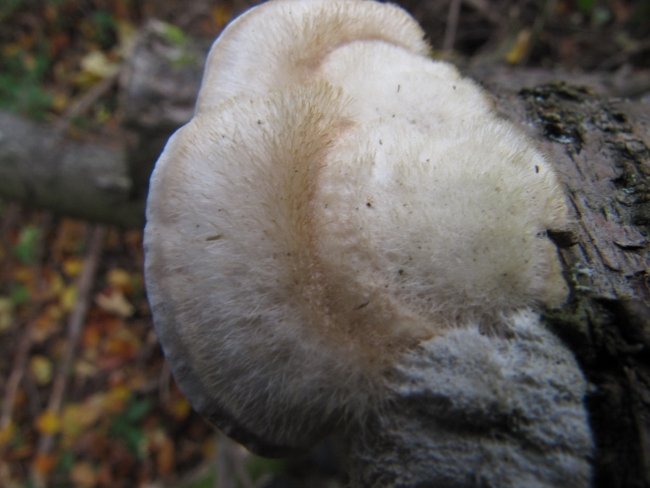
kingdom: Fungi
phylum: Basidiomycota
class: Agaricomycetes
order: Polyporales
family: Polyporaceae
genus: Trametes
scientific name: Trametes hirsuta
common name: håret læderporesvamp
